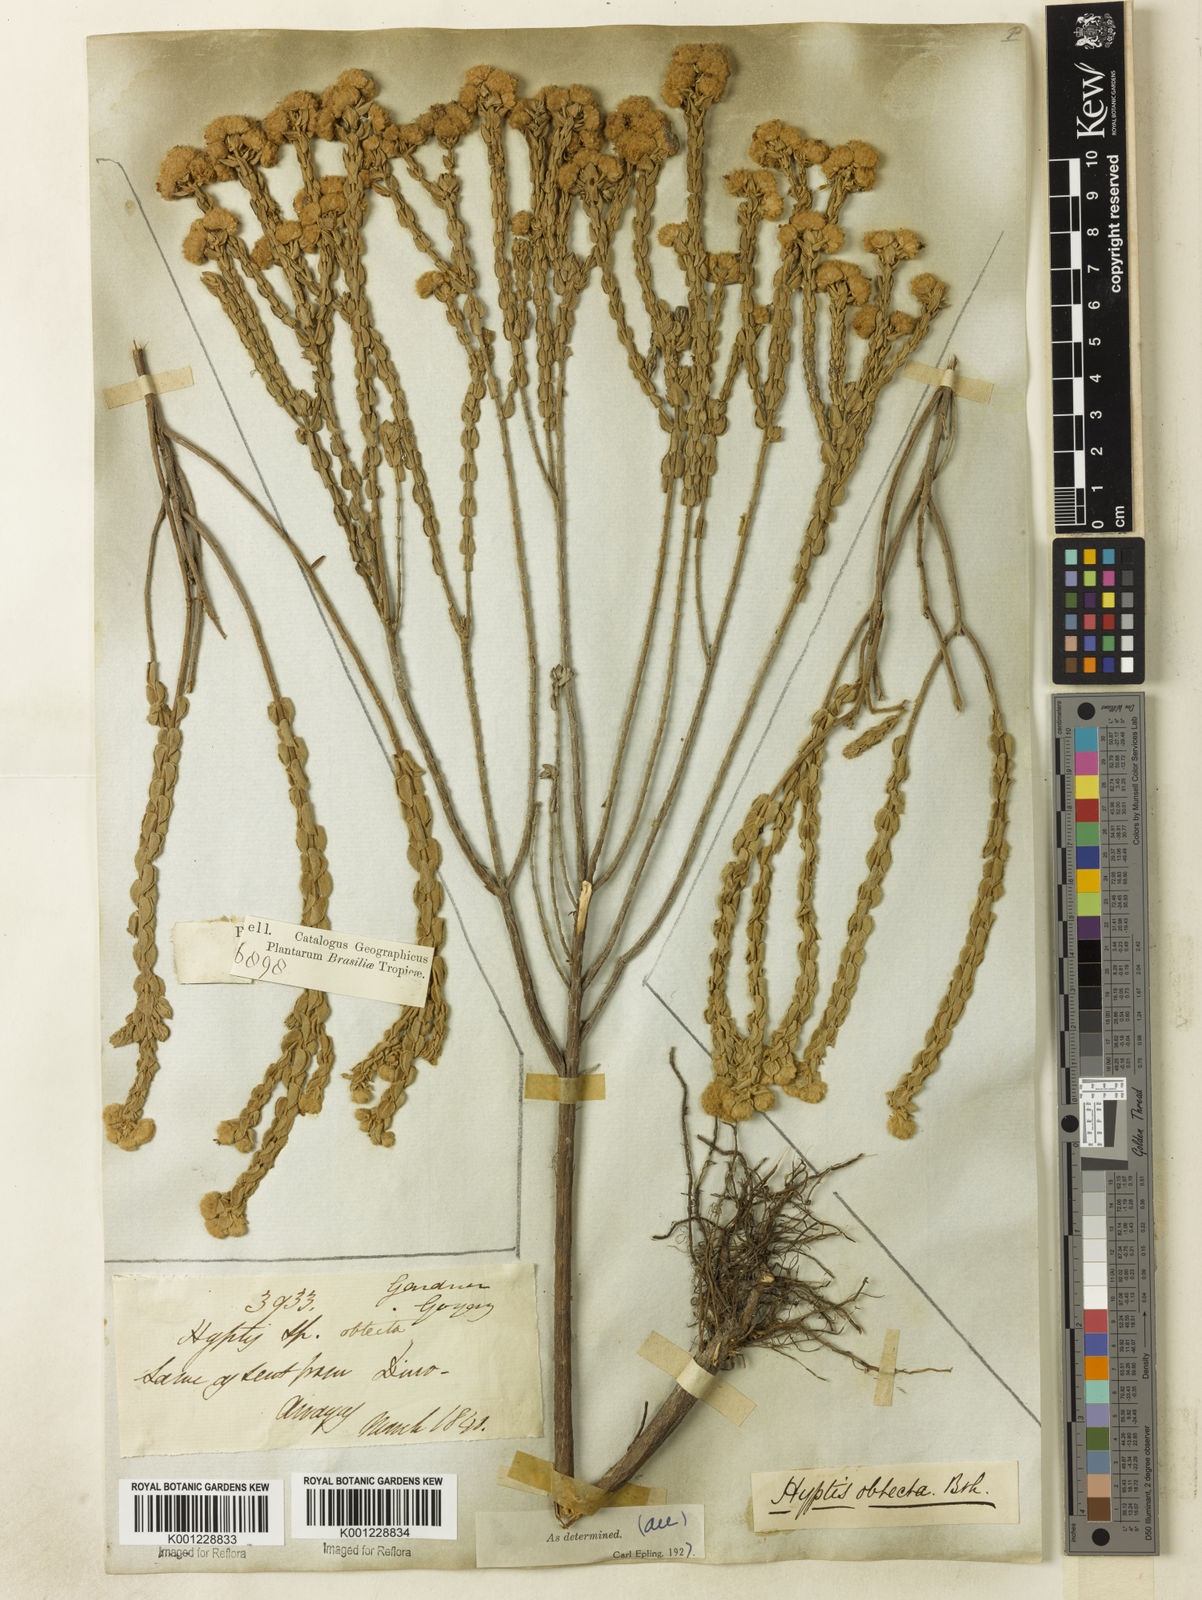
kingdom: Plantae
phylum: Tracheophyta
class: Magnoliopsida
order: Lamiales
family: Lamiaceae
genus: Hyptis
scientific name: Hyptis obtecta
